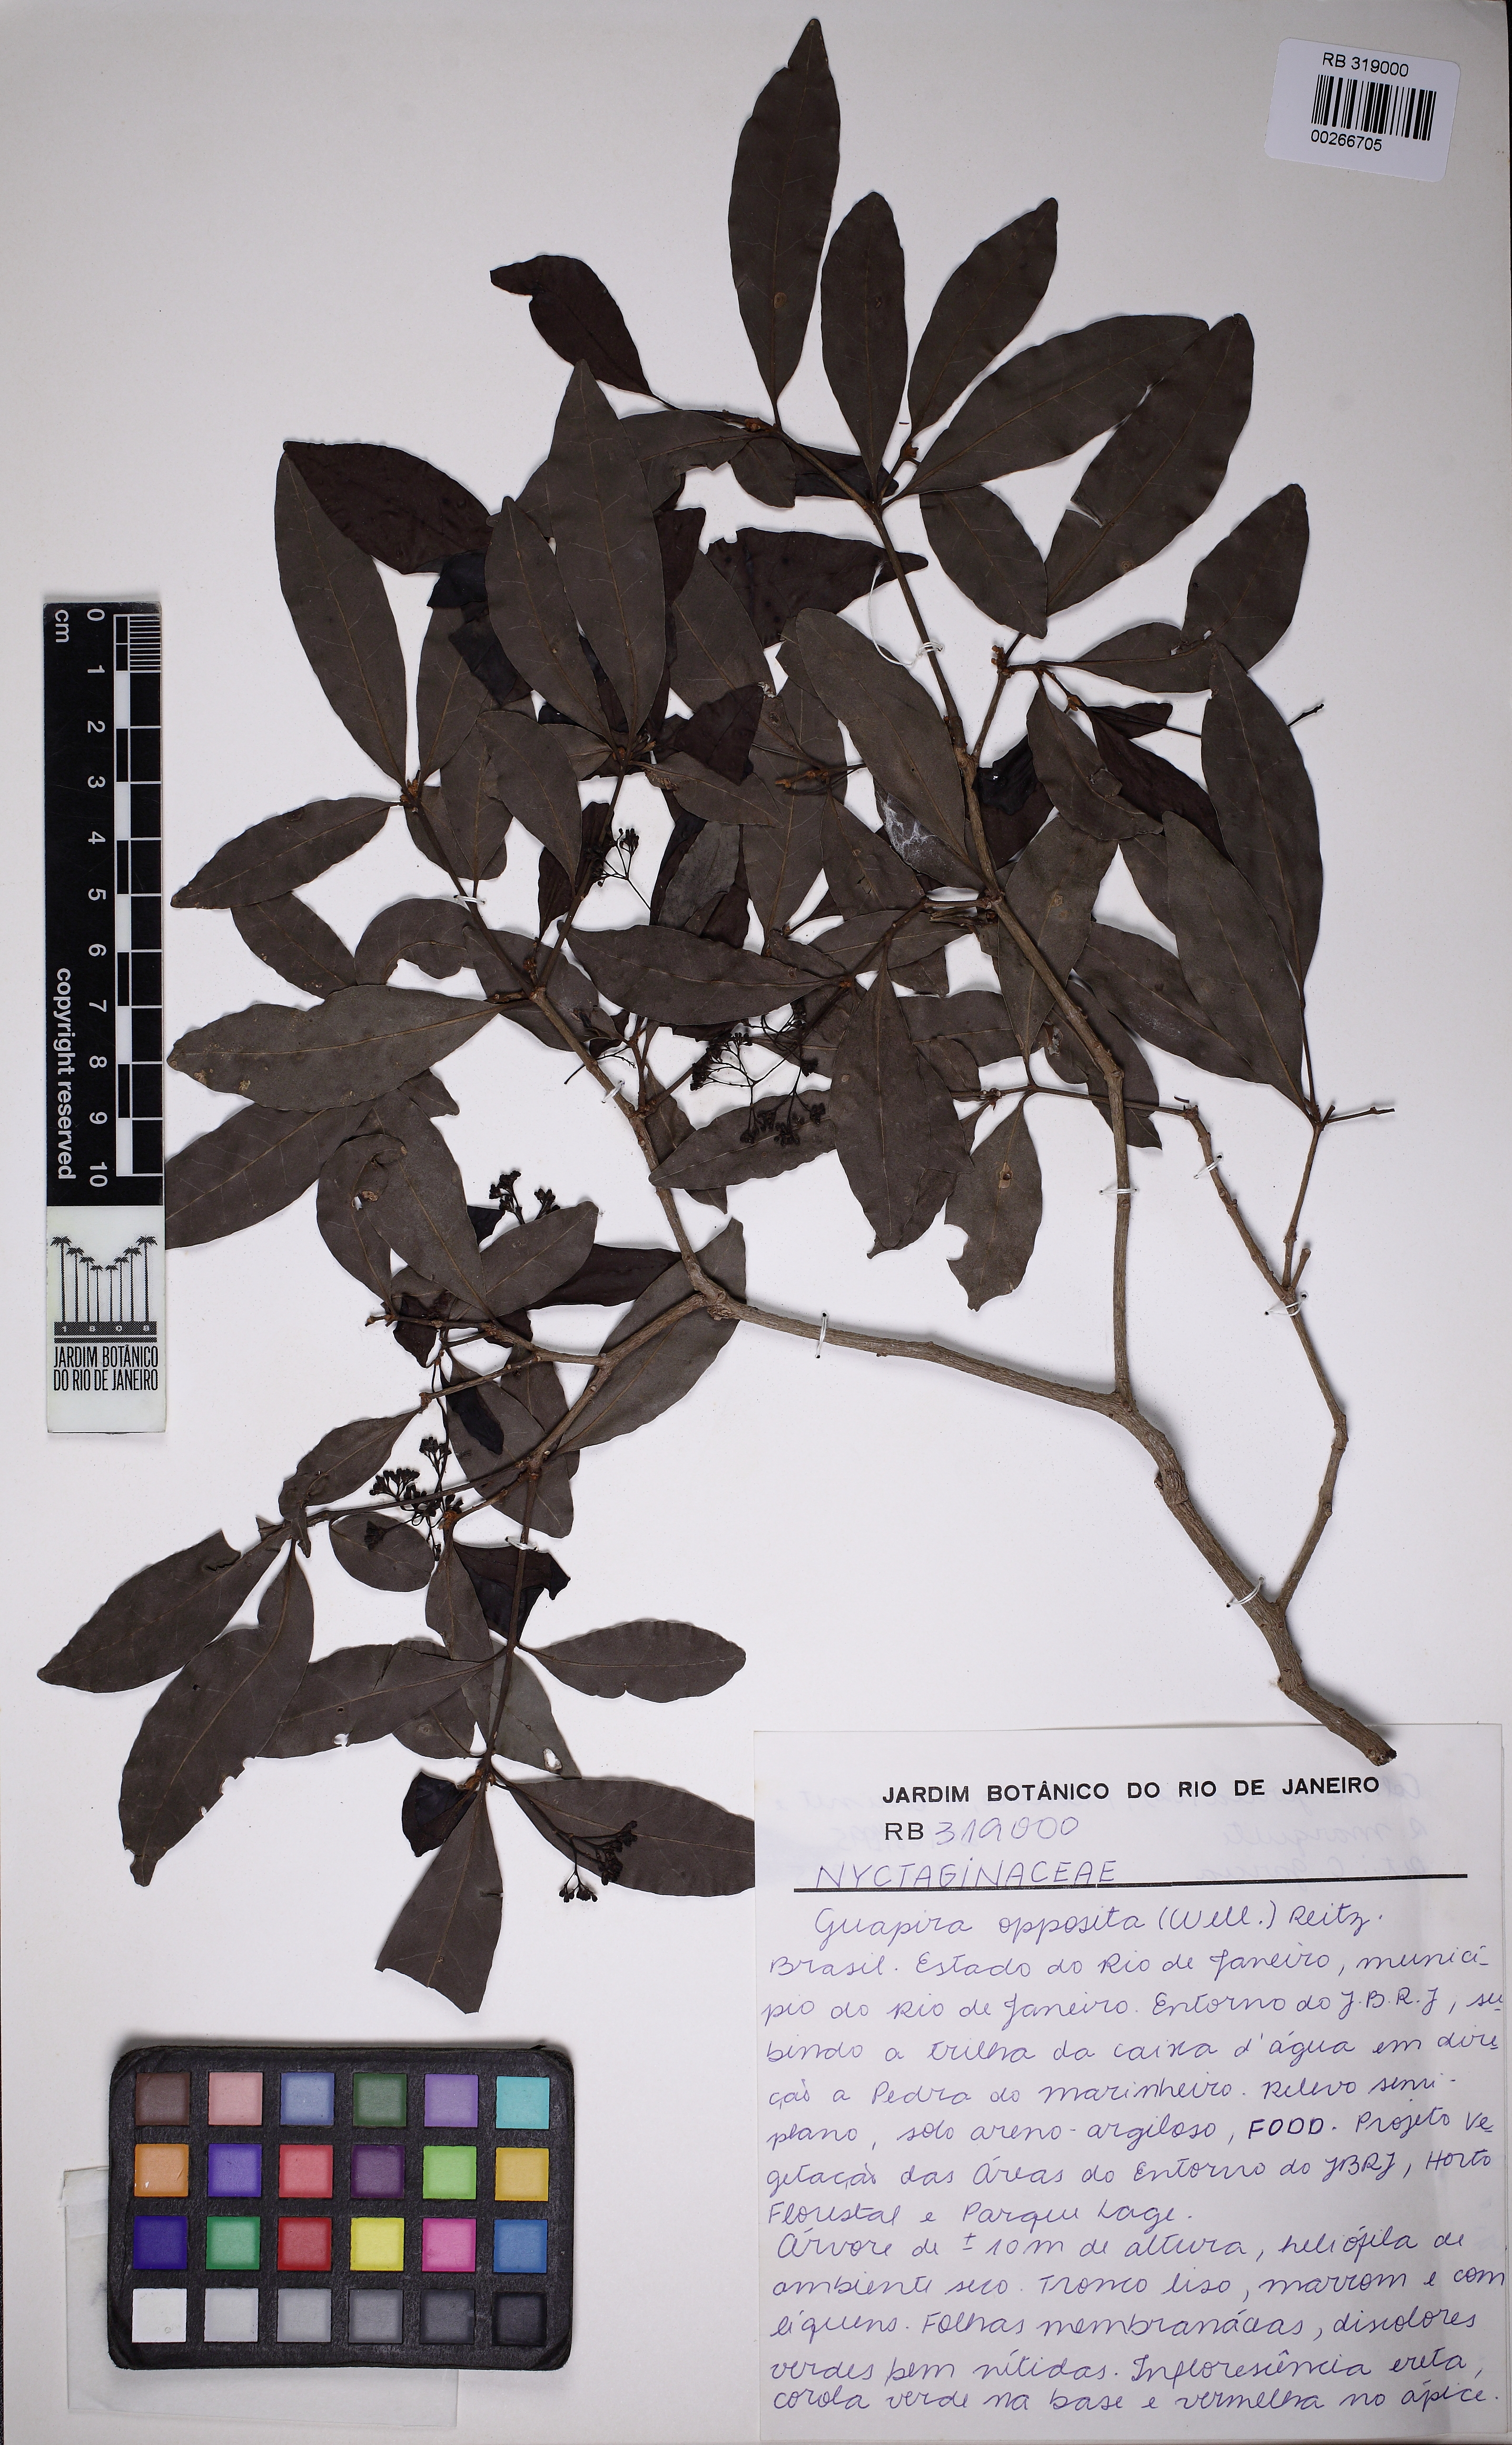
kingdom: Plantae
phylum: Tracheophyta
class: Magnoliopsida
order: Caryophyllales
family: Nyctaginaceae
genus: Guapira
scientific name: Guapira opposita
